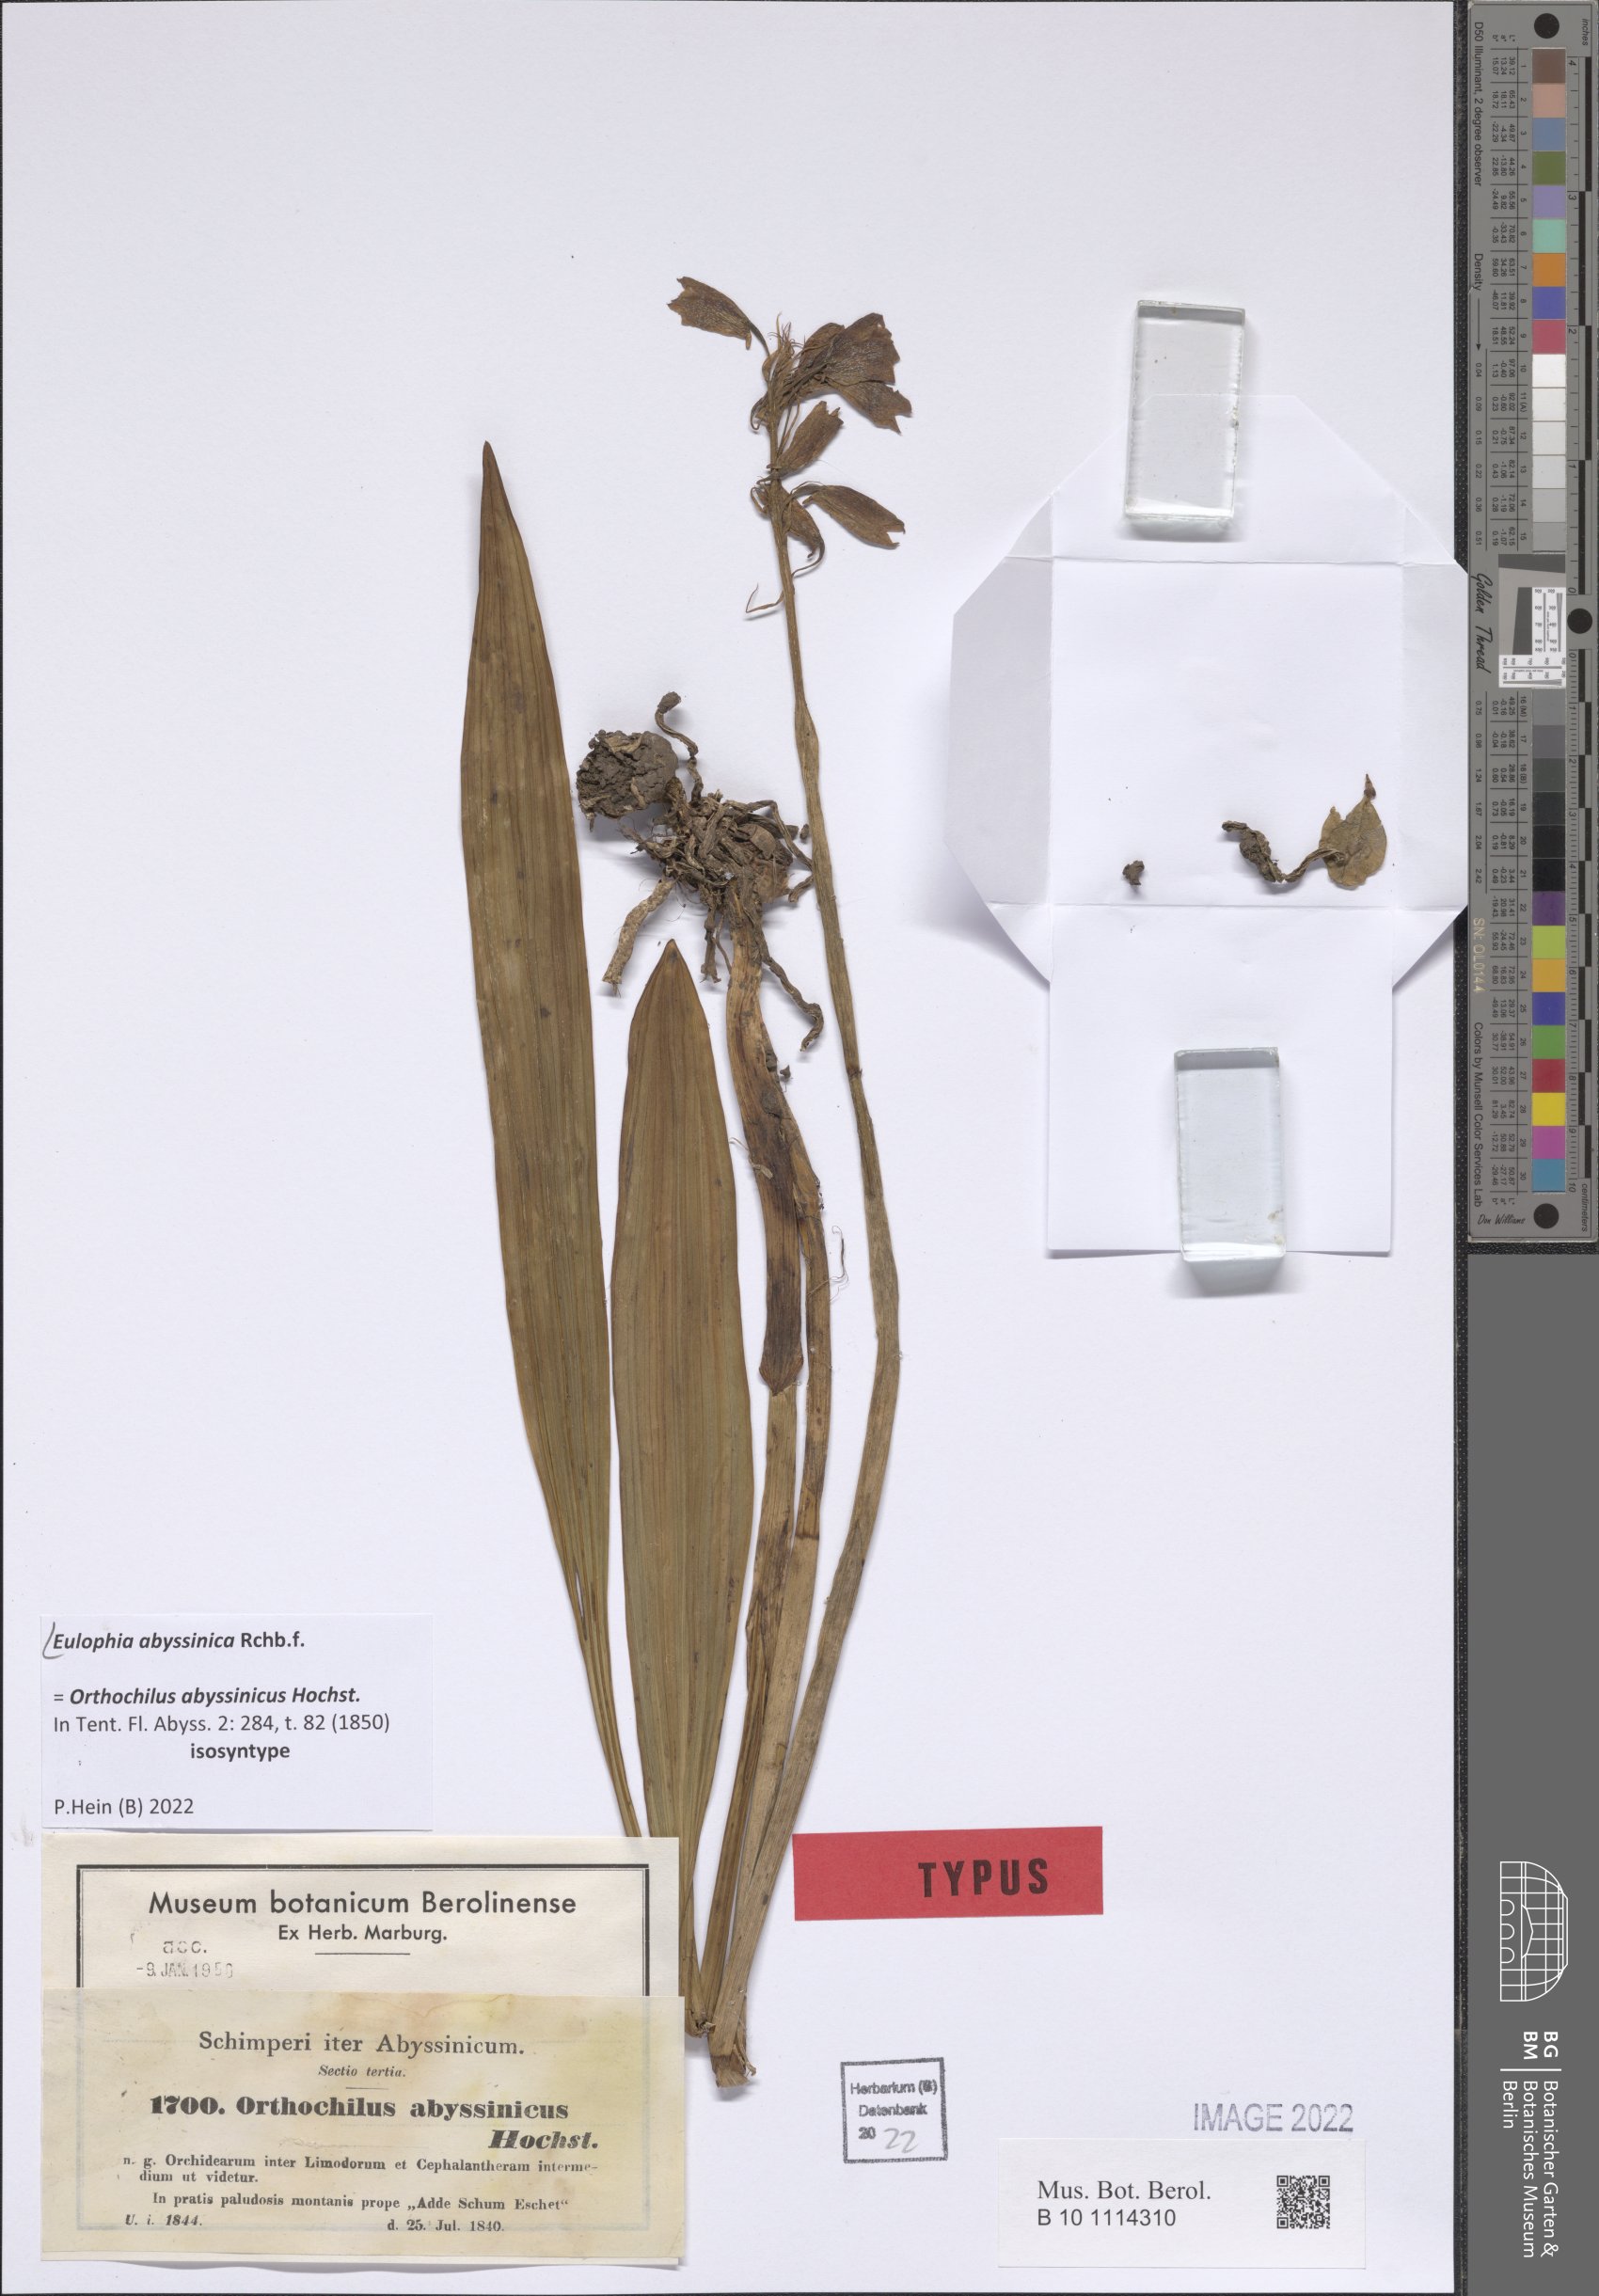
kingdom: Plantae
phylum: Tracheophyta
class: Liliopsida
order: Asparagales
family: Orchidaceae
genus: Eulophia
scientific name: Eulophia abyssinica
